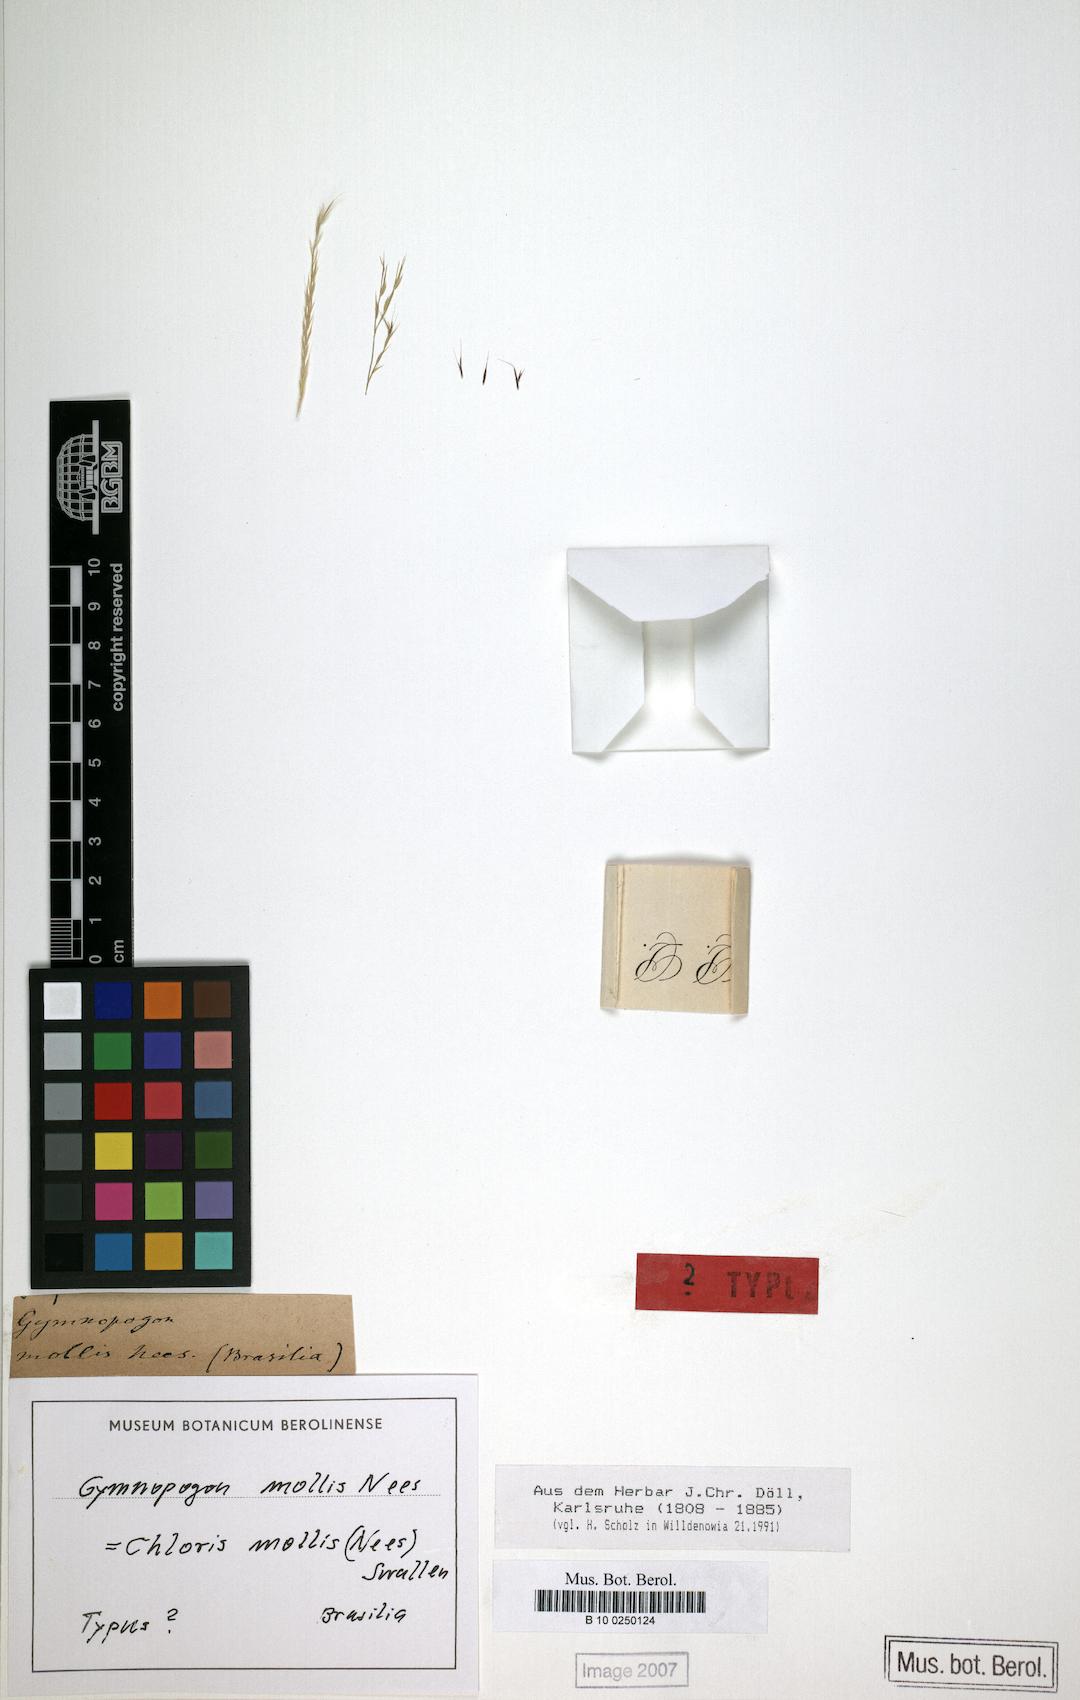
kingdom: Plantae
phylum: Tracheophyta
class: Liliopsida
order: Poales
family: Poaceae
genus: Leptochloa
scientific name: Leptochloa anisopoda
